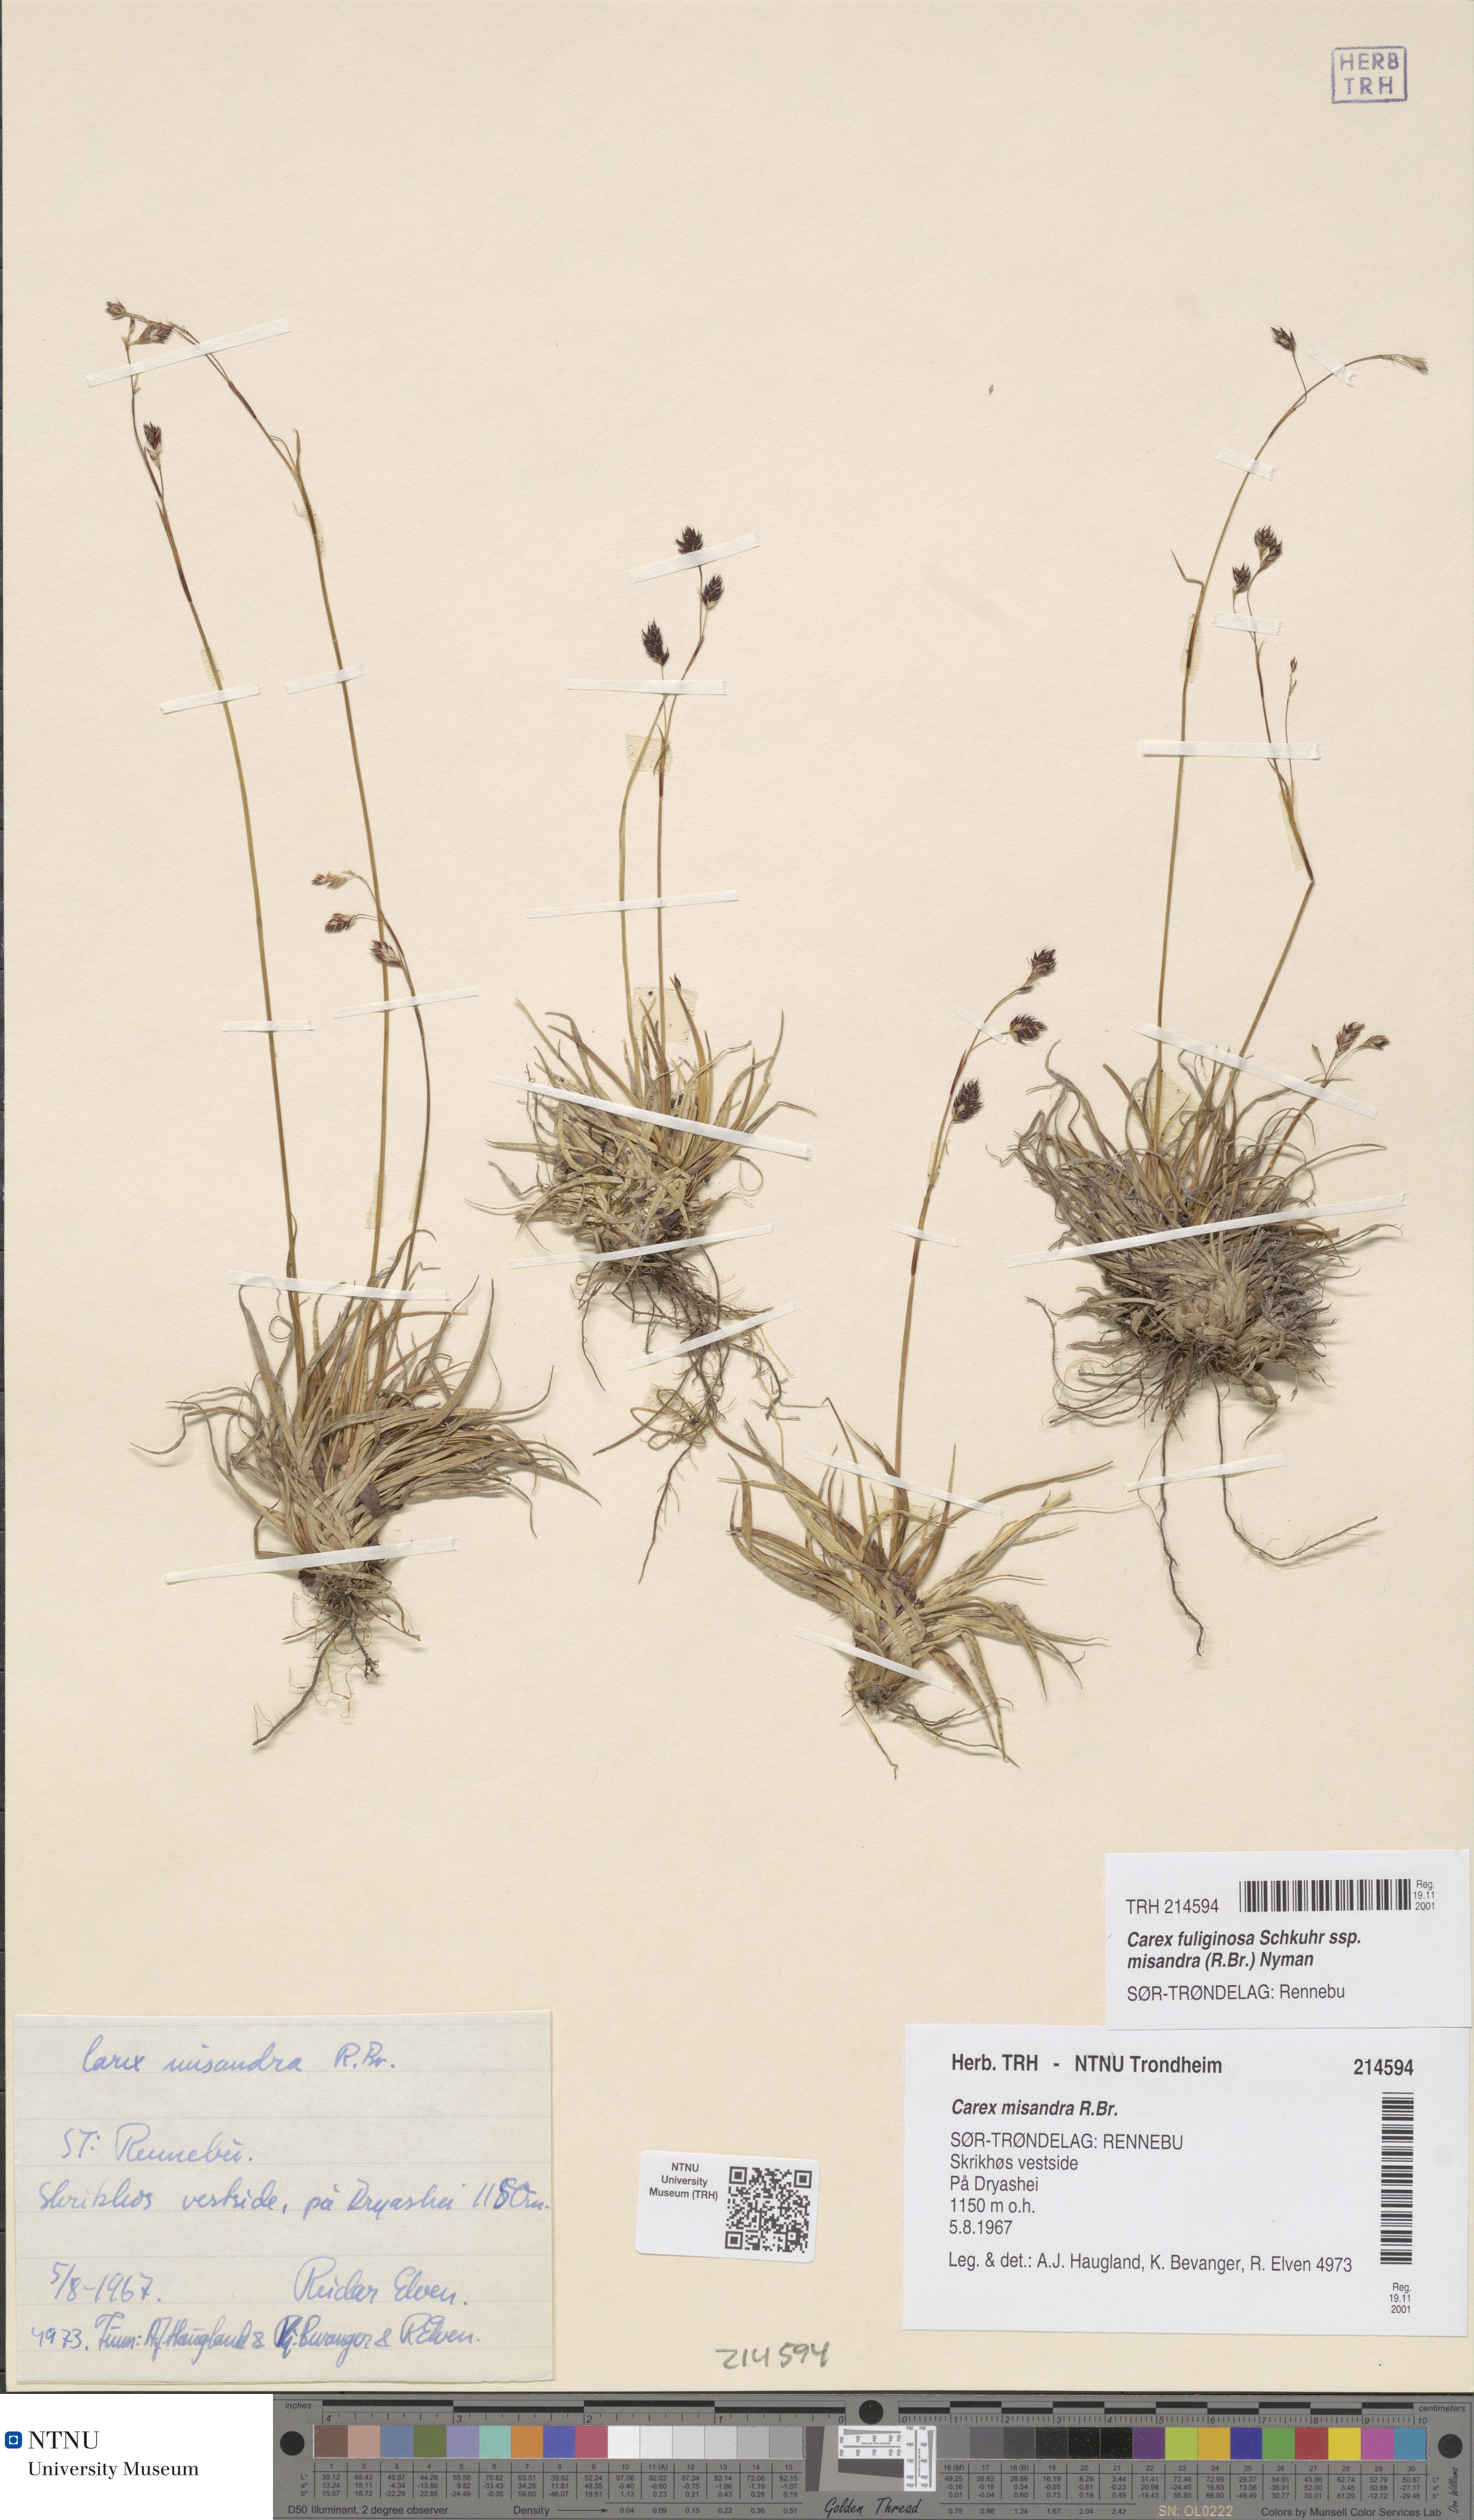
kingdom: Plantae
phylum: Tracheophyta
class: Liliopsida
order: Poales
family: Cyperaceae
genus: Carex
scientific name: Carex fuliginosa
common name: Few-flowered sedge
